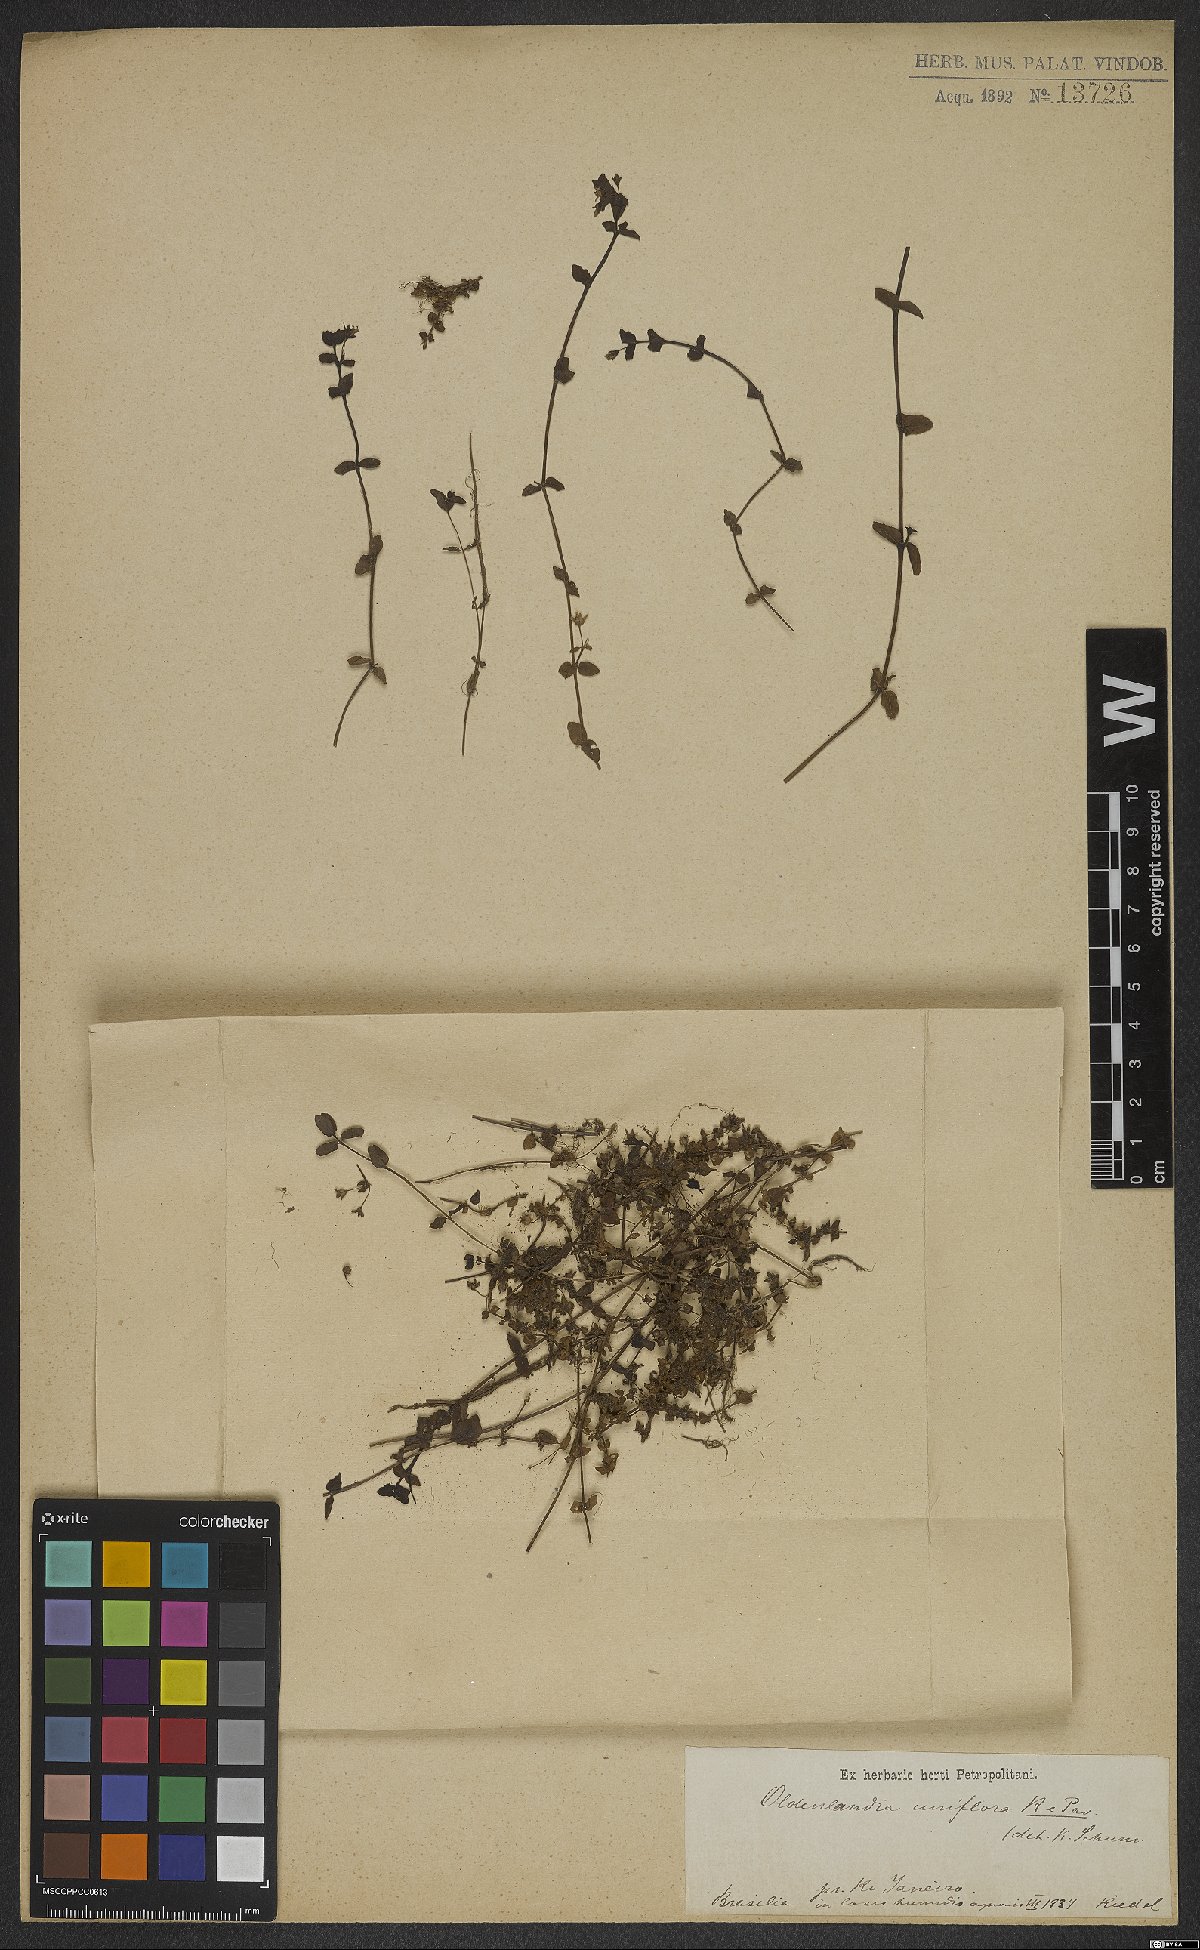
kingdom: Plantae
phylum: Tracheophyta
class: Magnoliopsida
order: Gentianales
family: Rubiaceae
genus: Edrastima
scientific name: Edrastima uniflora
